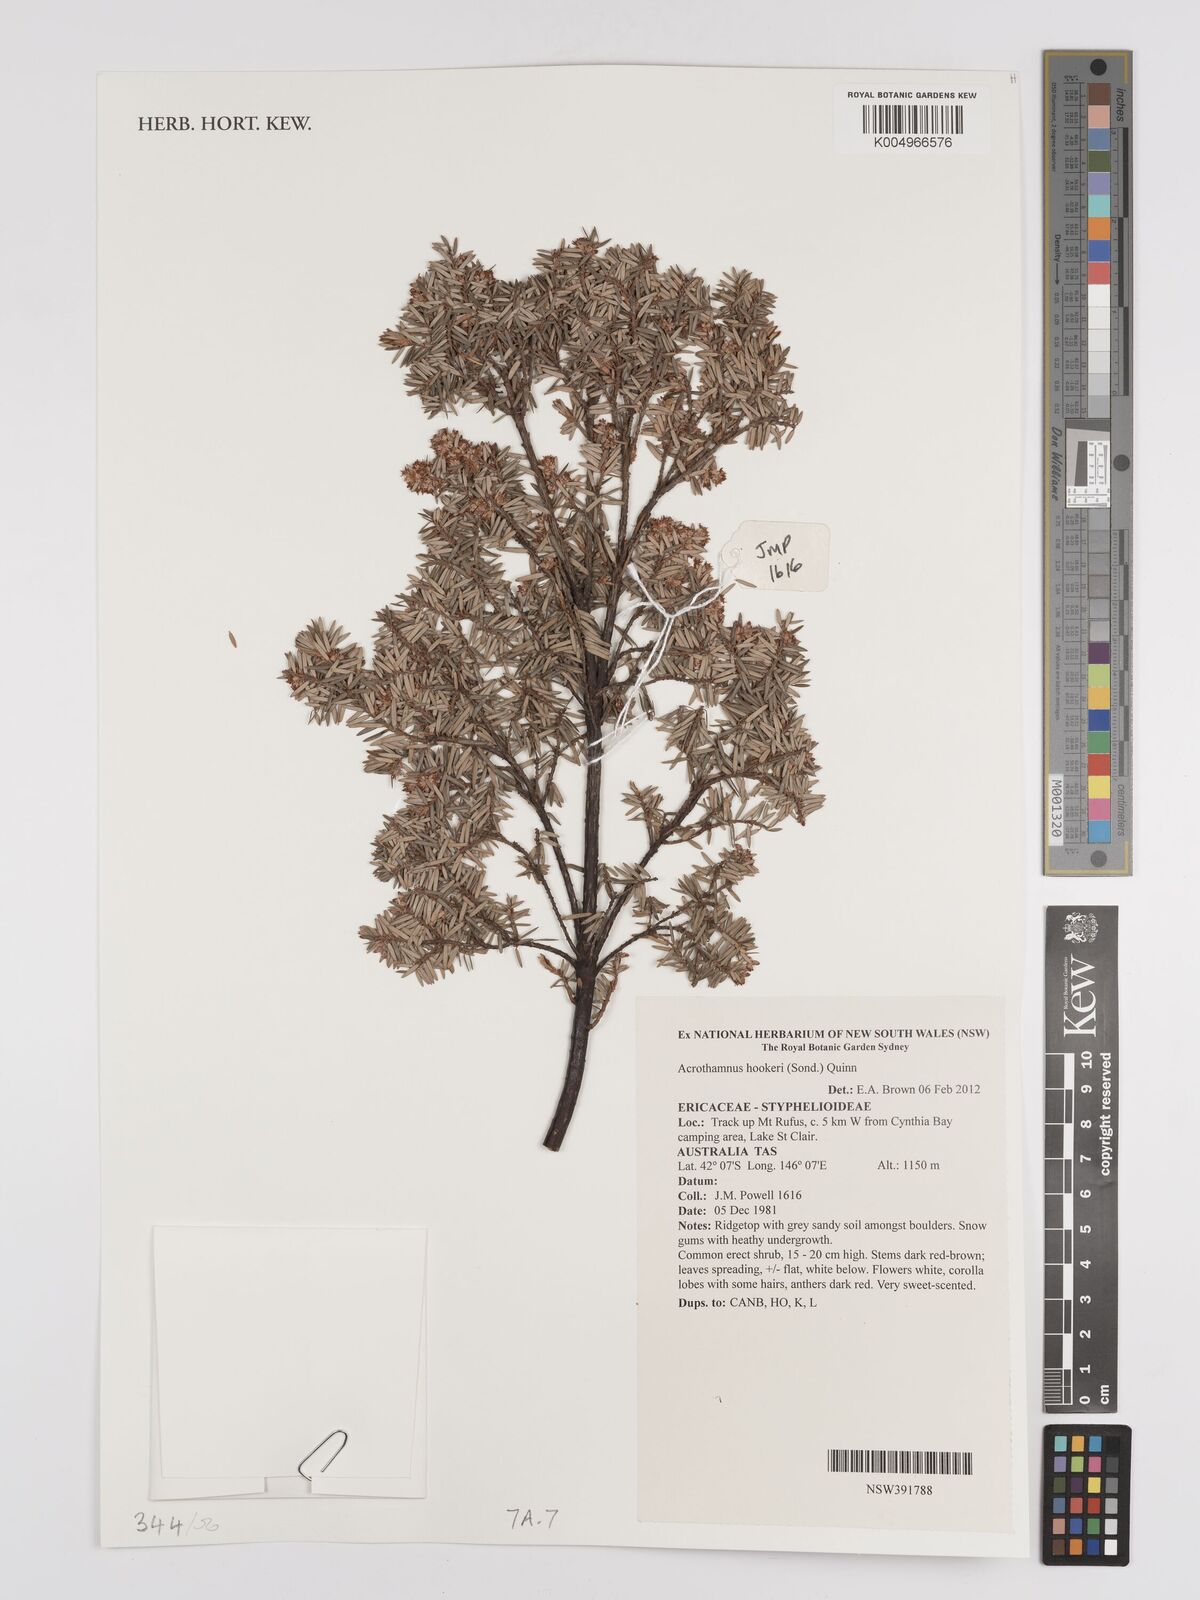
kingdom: Plantae
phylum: Tracheophyta
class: Magnoliopsida
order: Ericales
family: Ericaceae
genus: Acrothamnus
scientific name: Acrothamnus hookeri
